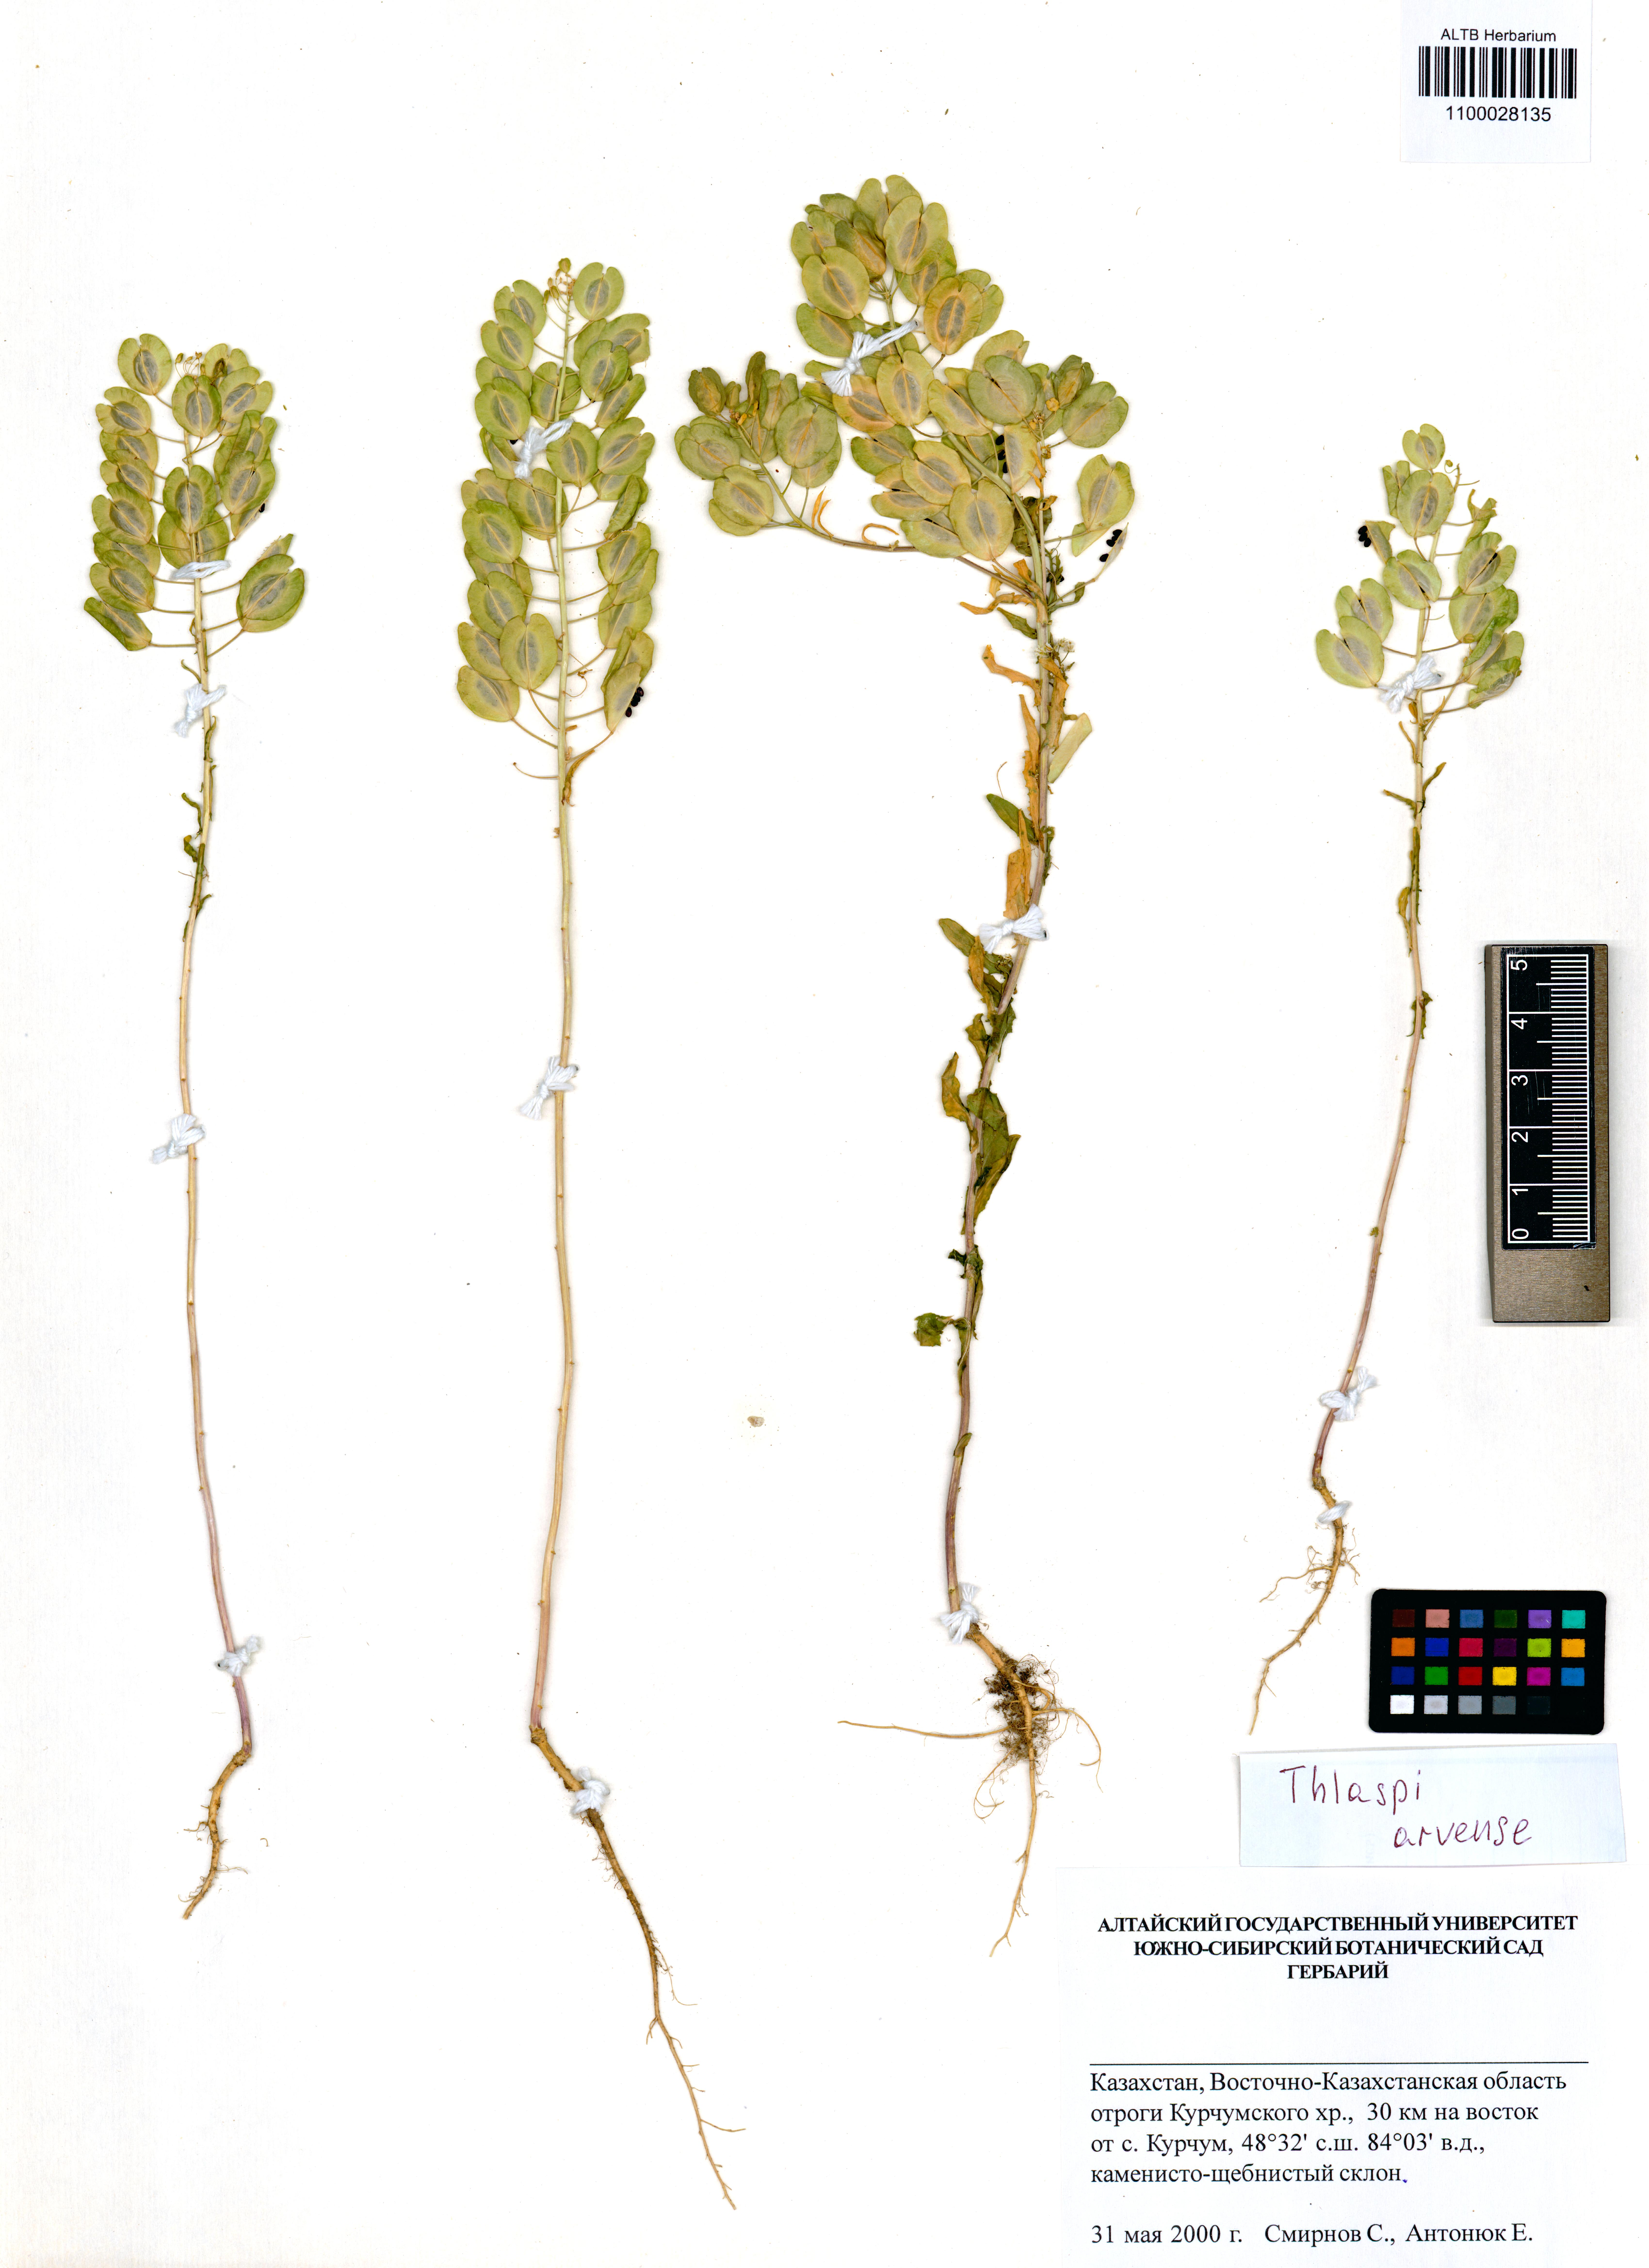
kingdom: Plantae
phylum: Tracheophyta
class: Magnoliopsida
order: Brassicales
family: Brassicaceae
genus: Thlaspi
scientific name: Thlaspi arvense
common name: Field pennycress
